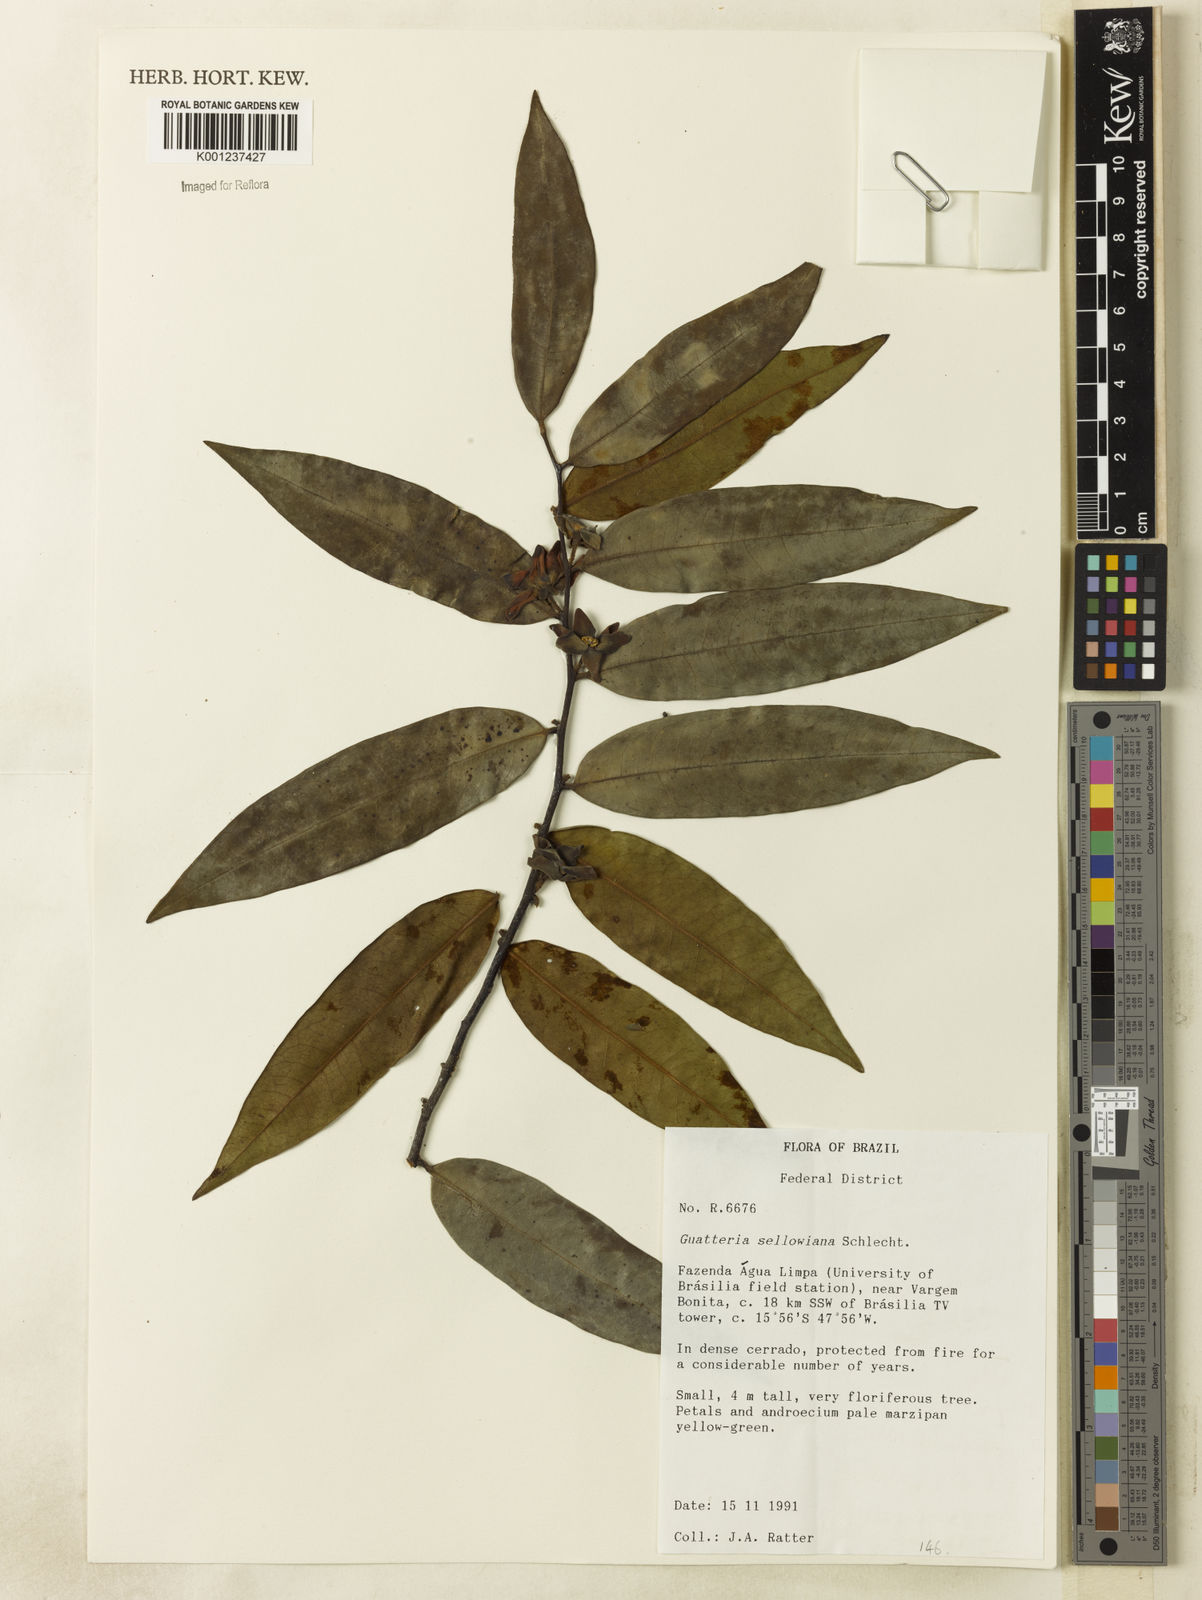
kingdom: Plantae
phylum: Tracheophyta
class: Magnoliopsida
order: Magnoliales
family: Annonaceae
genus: Guatteria
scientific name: Guatteria sellowiana
